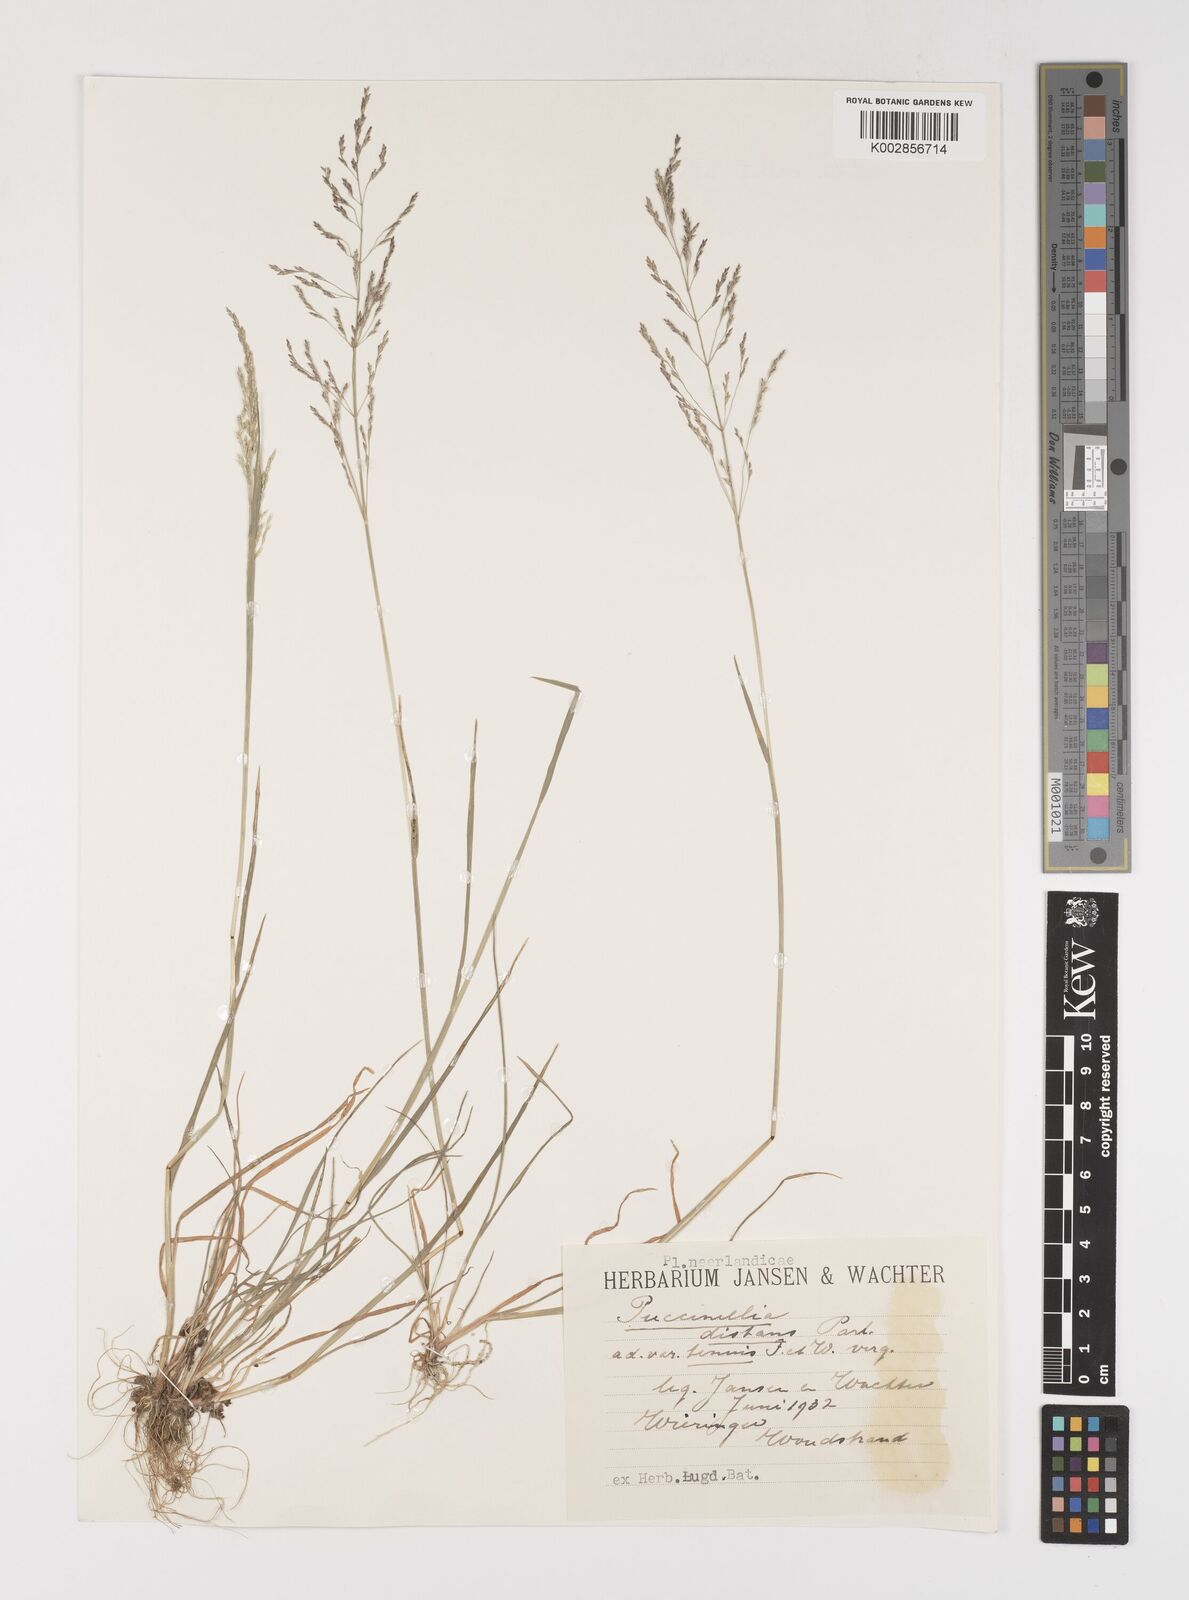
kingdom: Plantae
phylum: Tracheophyta
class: Liliopsida
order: Poales
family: Poaceae
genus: Puccinellia
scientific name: Puccinellia
